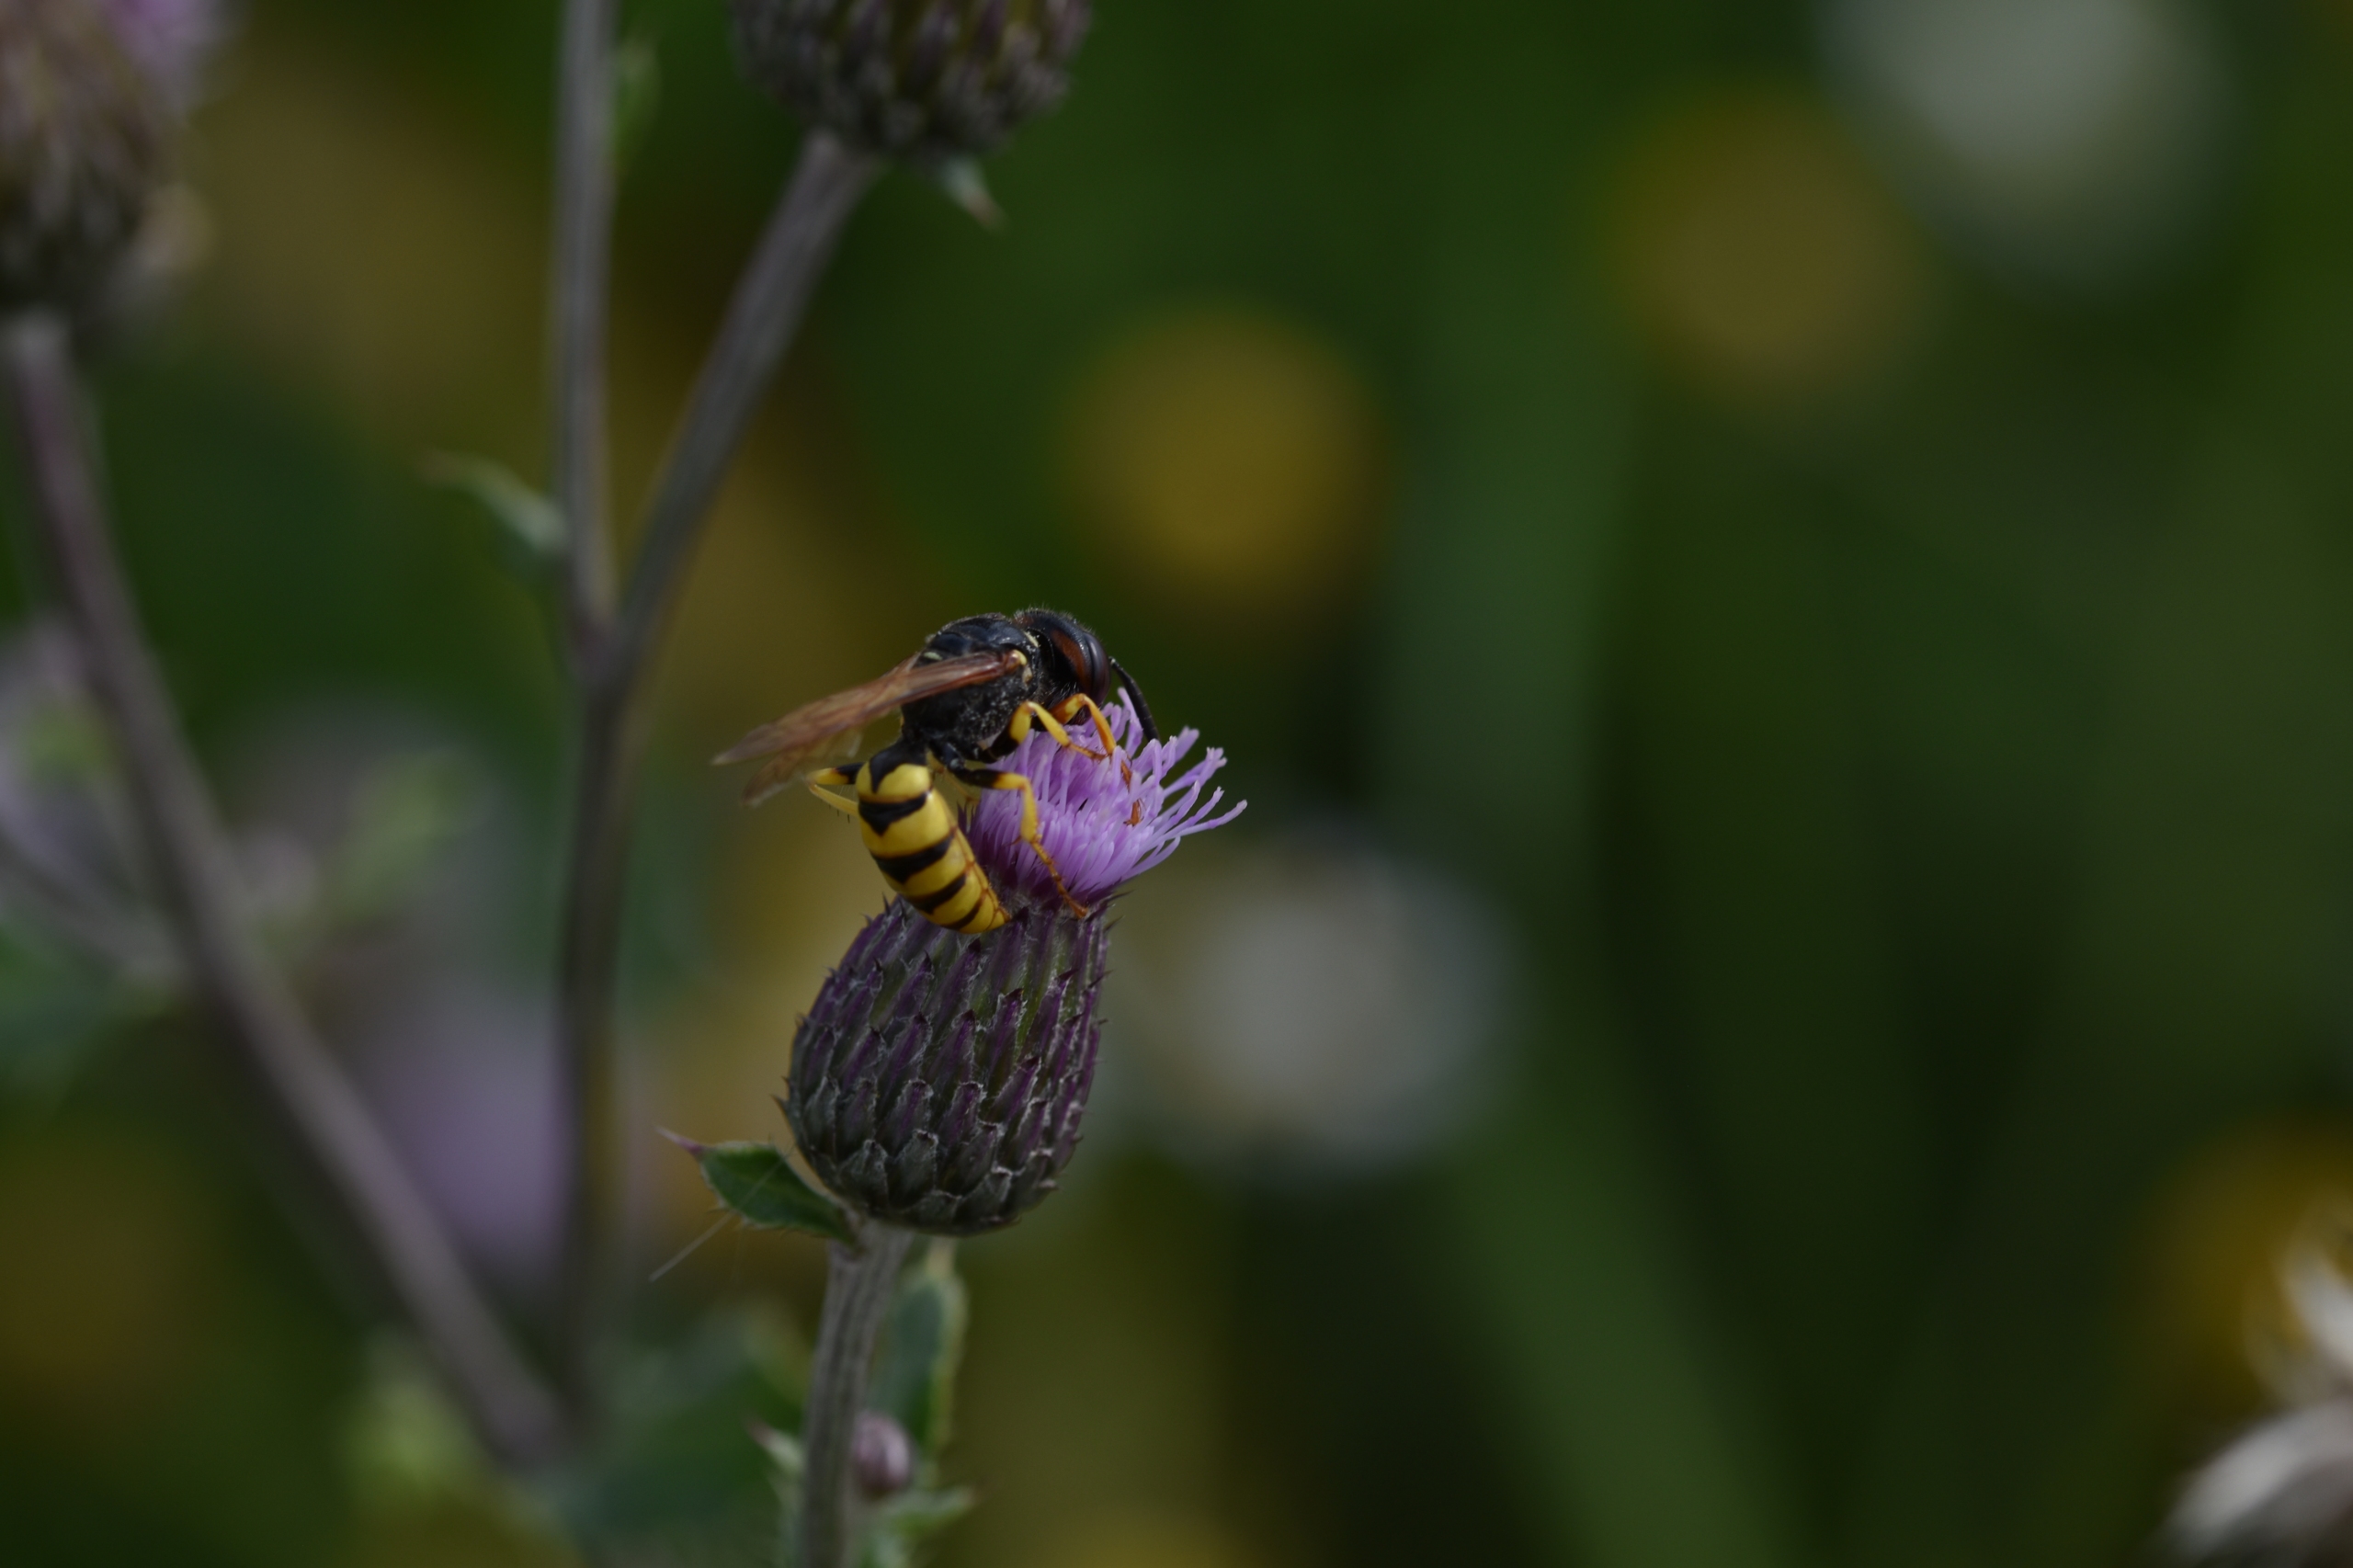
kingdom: Animalia
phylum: Arthropoda
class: Insecta
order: Hymenoptera
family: Crabronidae
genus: Philanthus
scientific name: Philanthus triangulum
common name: Biulv
